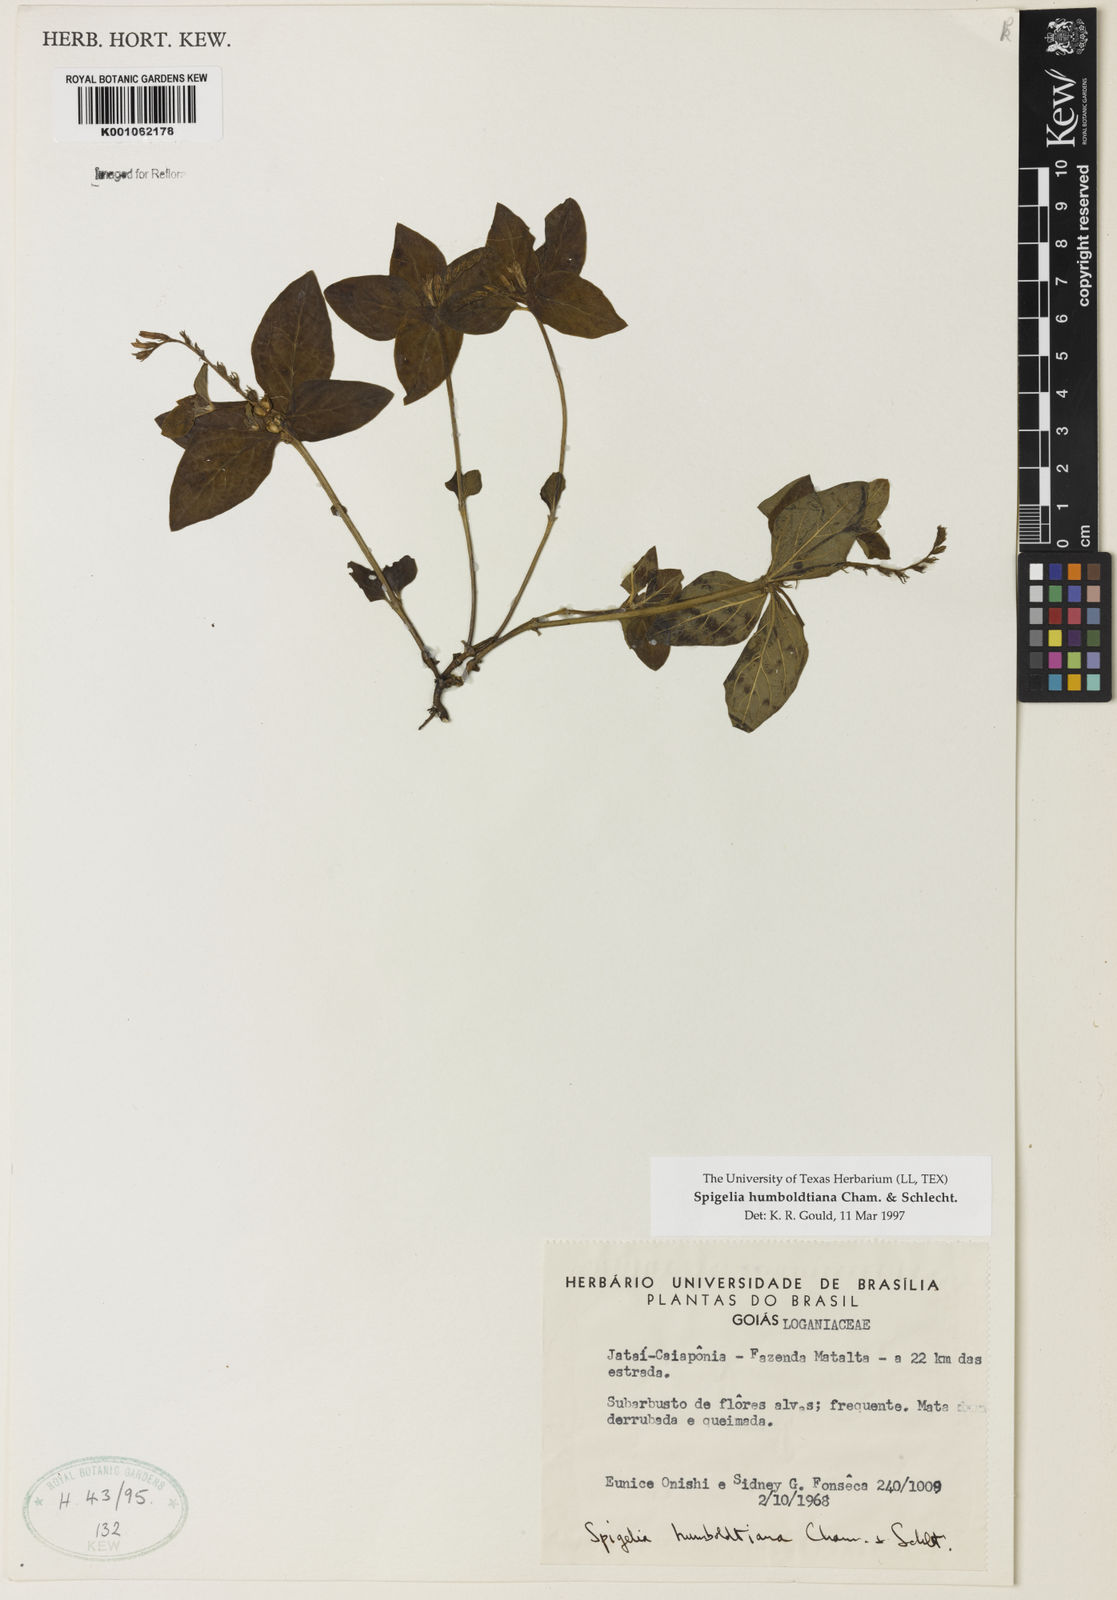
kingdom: Plantae
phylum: Tracheophyta
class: Magnoliopsida
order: Gentianales
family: Loganiaceae
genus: Spigelia
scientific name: Spigelia humboldtiana
